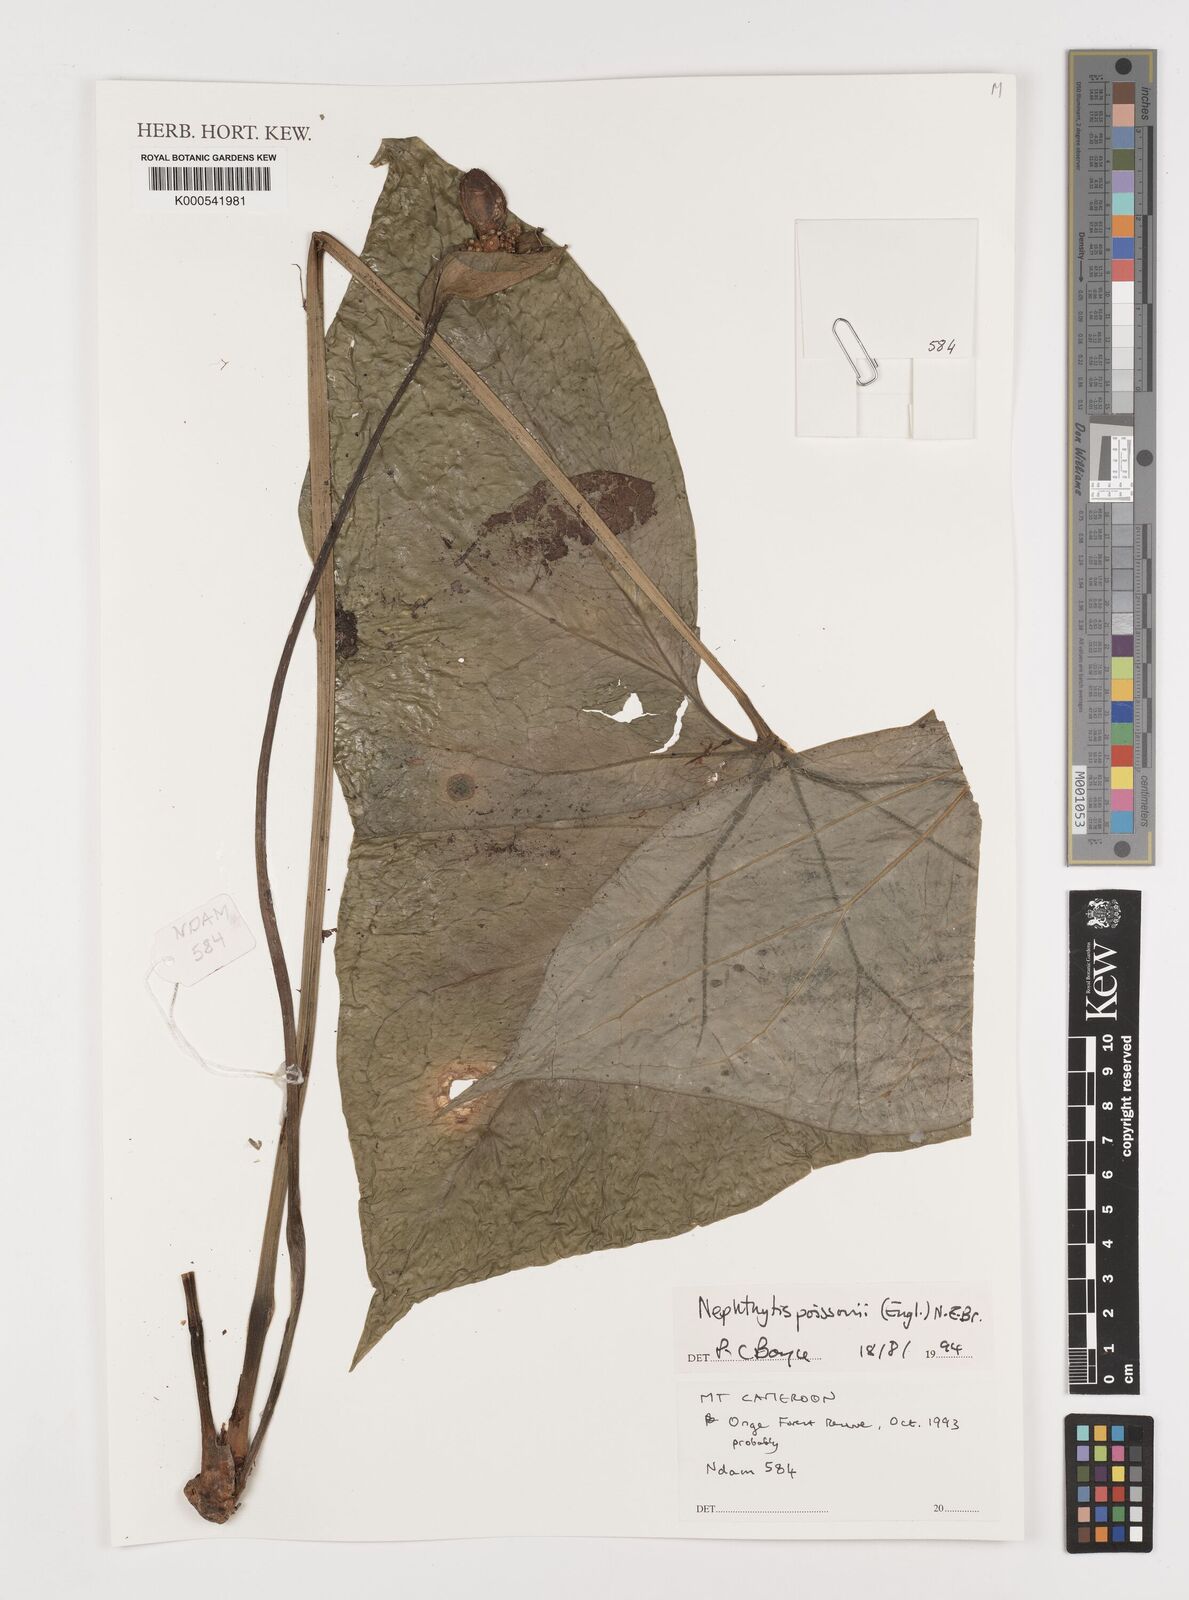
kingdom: Plantae
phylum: Tracheophyta
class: Liliopsida
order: Alismatales
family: Araceae
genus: Nephthytis
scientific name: Nephthytis poissonii
